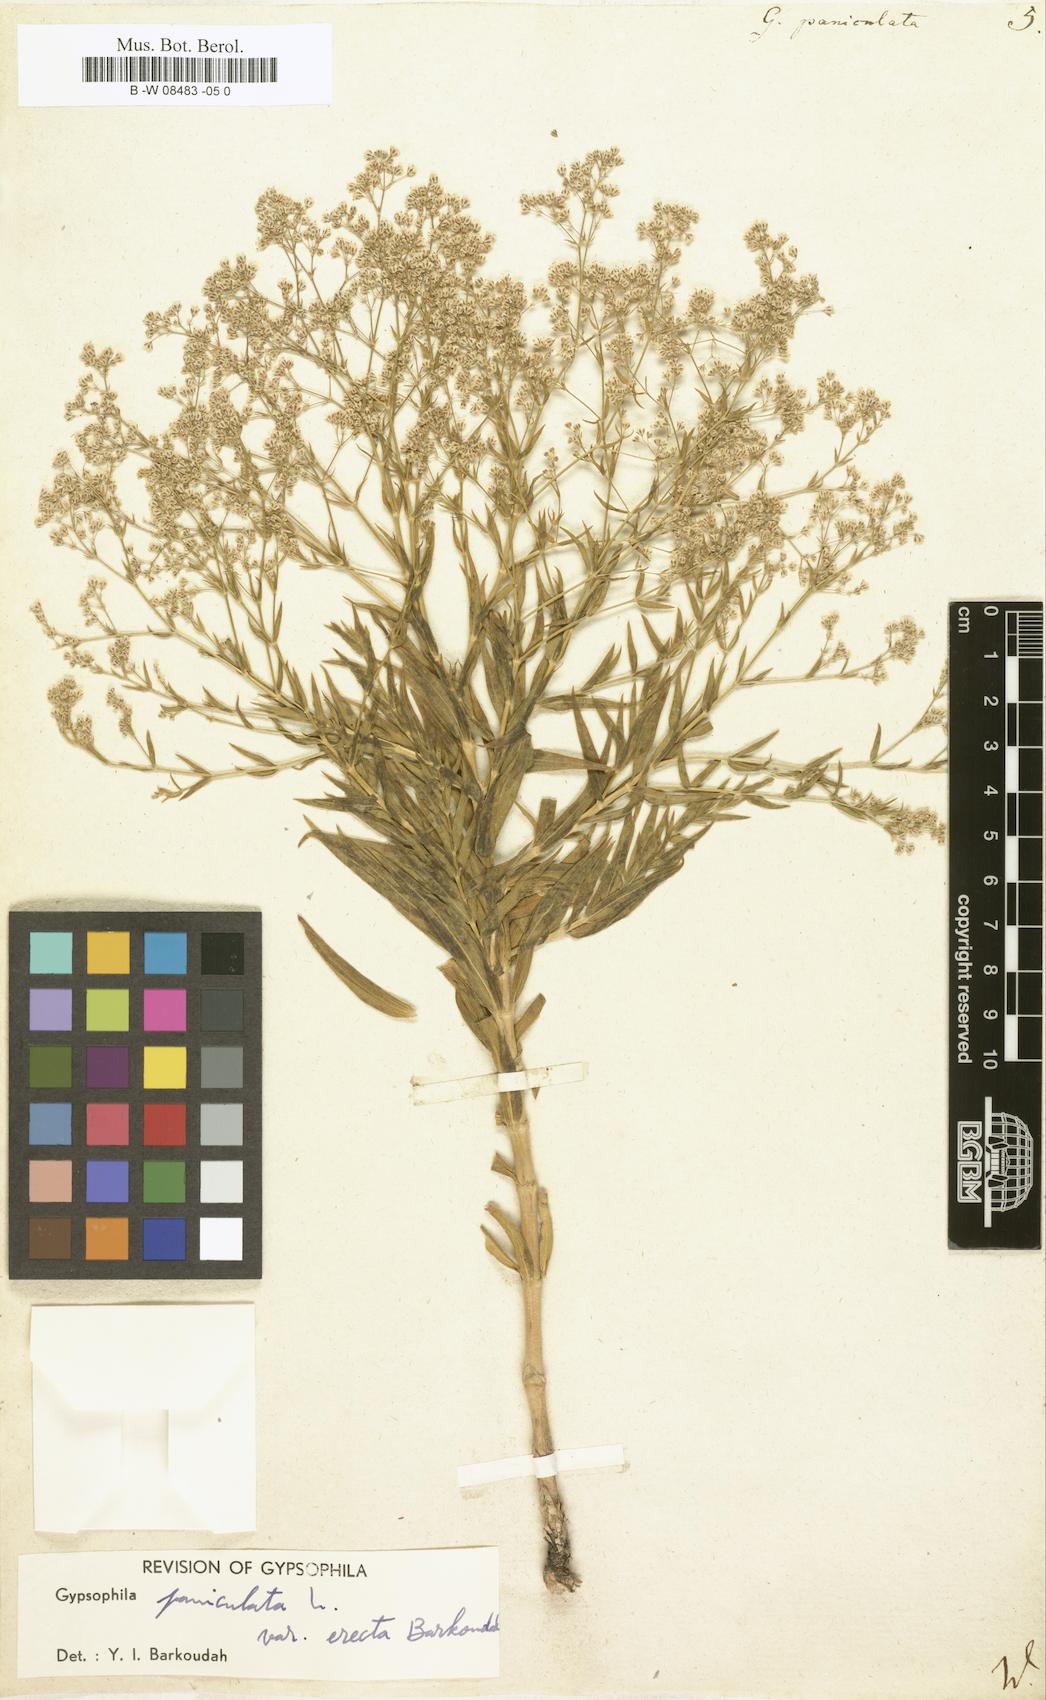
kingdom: Plantae
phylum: Tracheophyta
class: Magnoliopsida
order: Caryophyllales
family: Caryophyllaceae
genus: Gypsophila
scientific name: Gypsophila paniculata
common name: Baby's-breath
